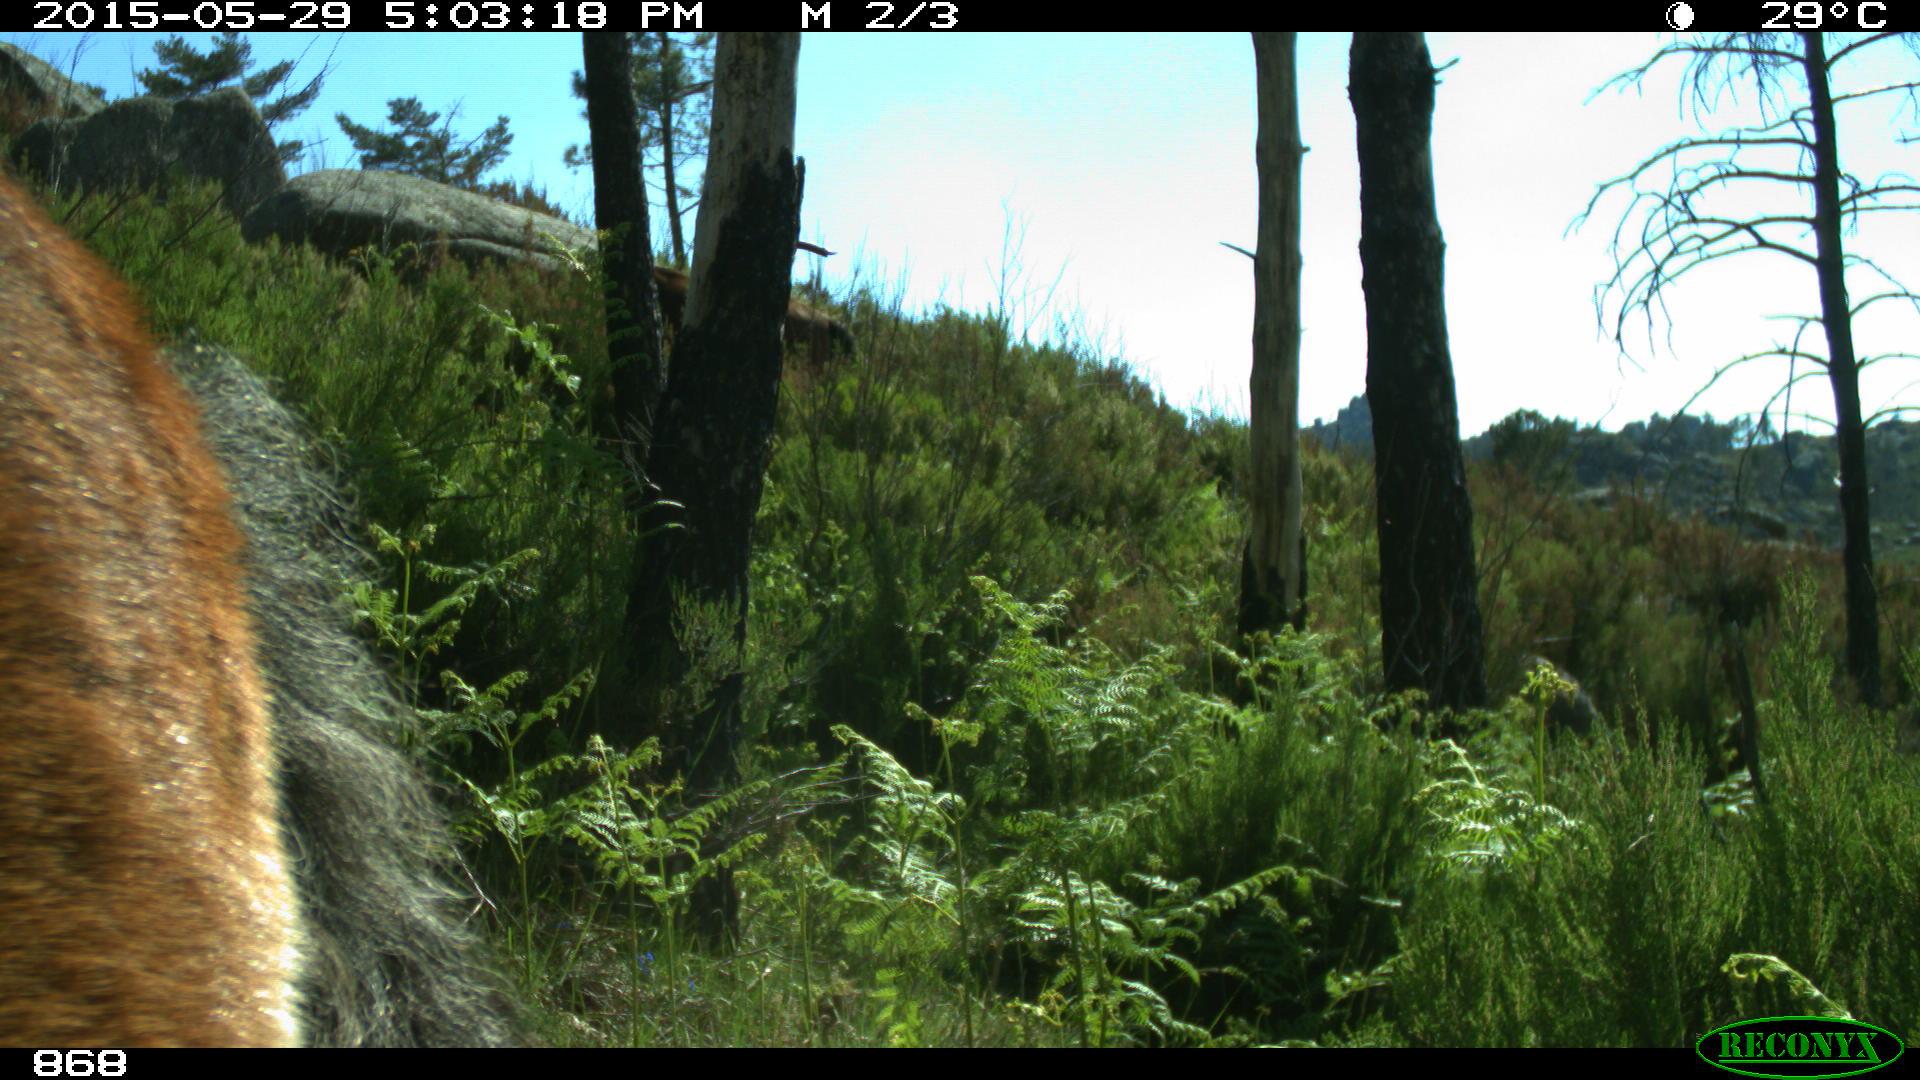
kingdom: Animalia
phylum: Chordata
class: Mammalia
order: Perissodactyla
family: Equidae
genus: Equus
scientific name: Equus caballus
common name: Horse
